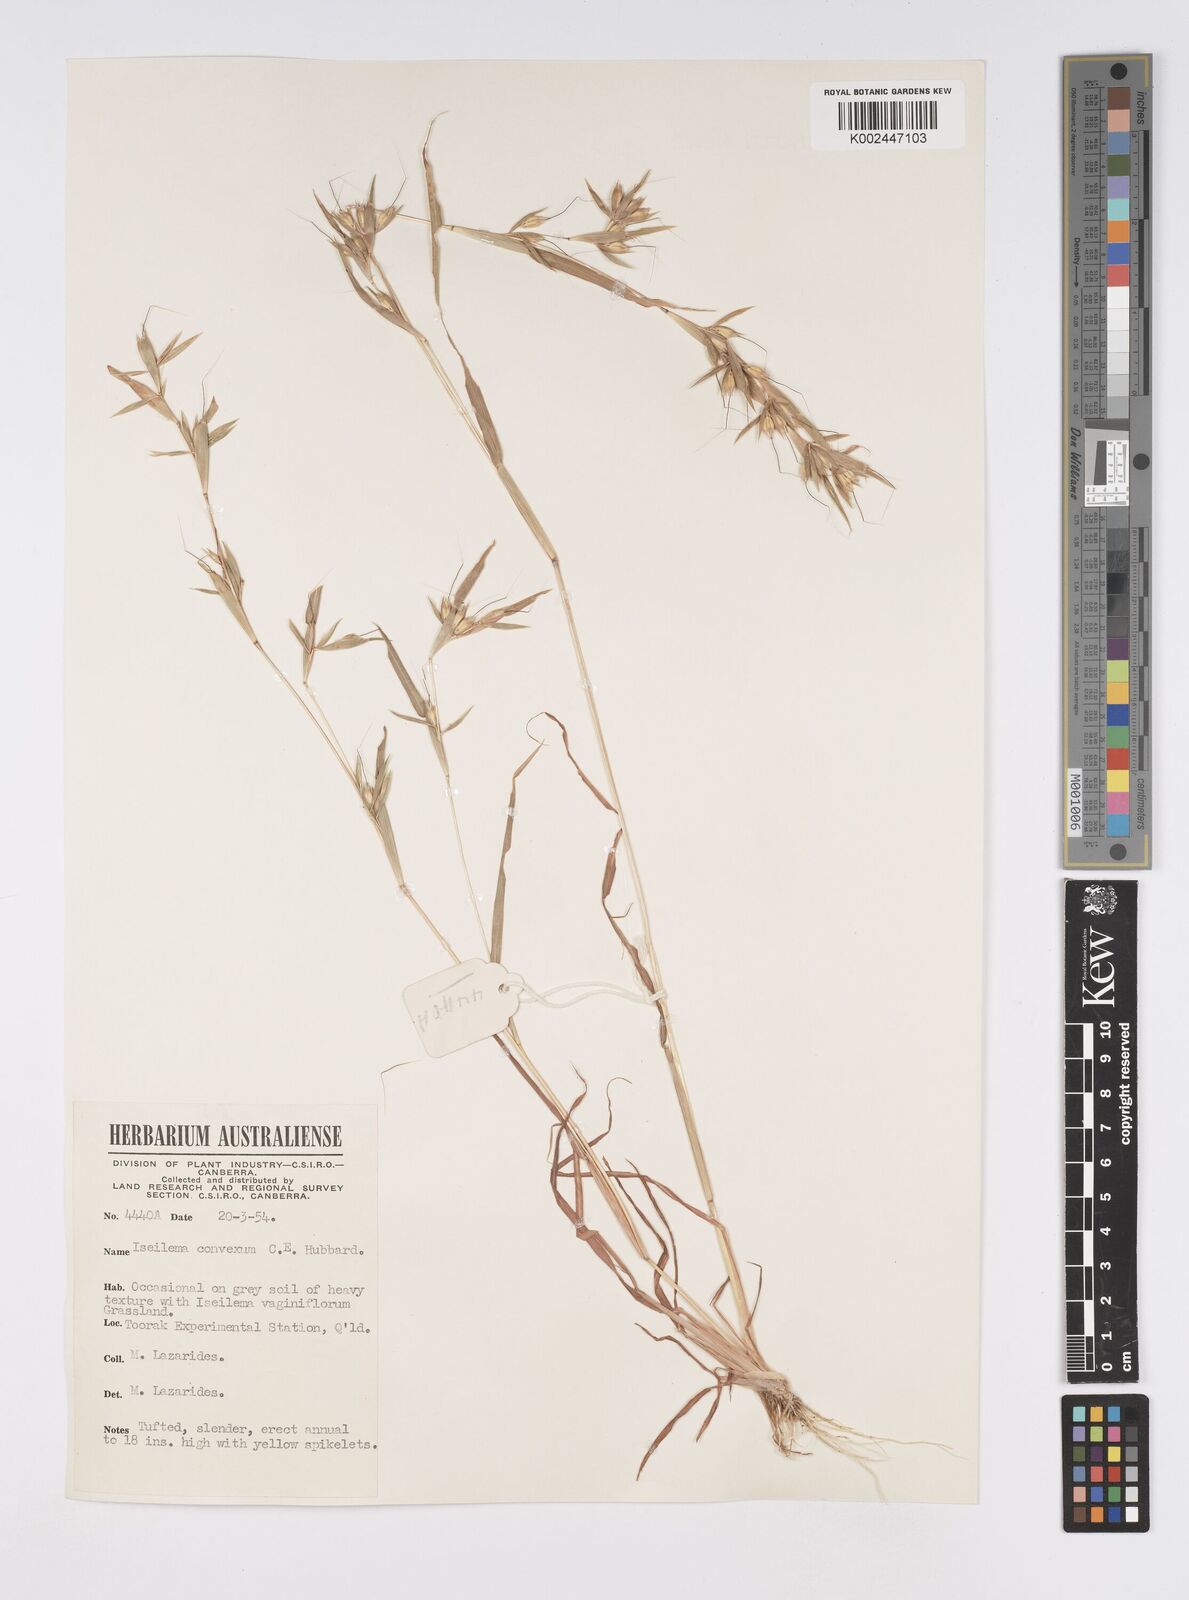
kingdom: Plantae
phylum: Tracheophyta
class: Liliopsida
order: Poales
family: Poaceae
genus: Iseilema
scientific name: Iseilema convexum
